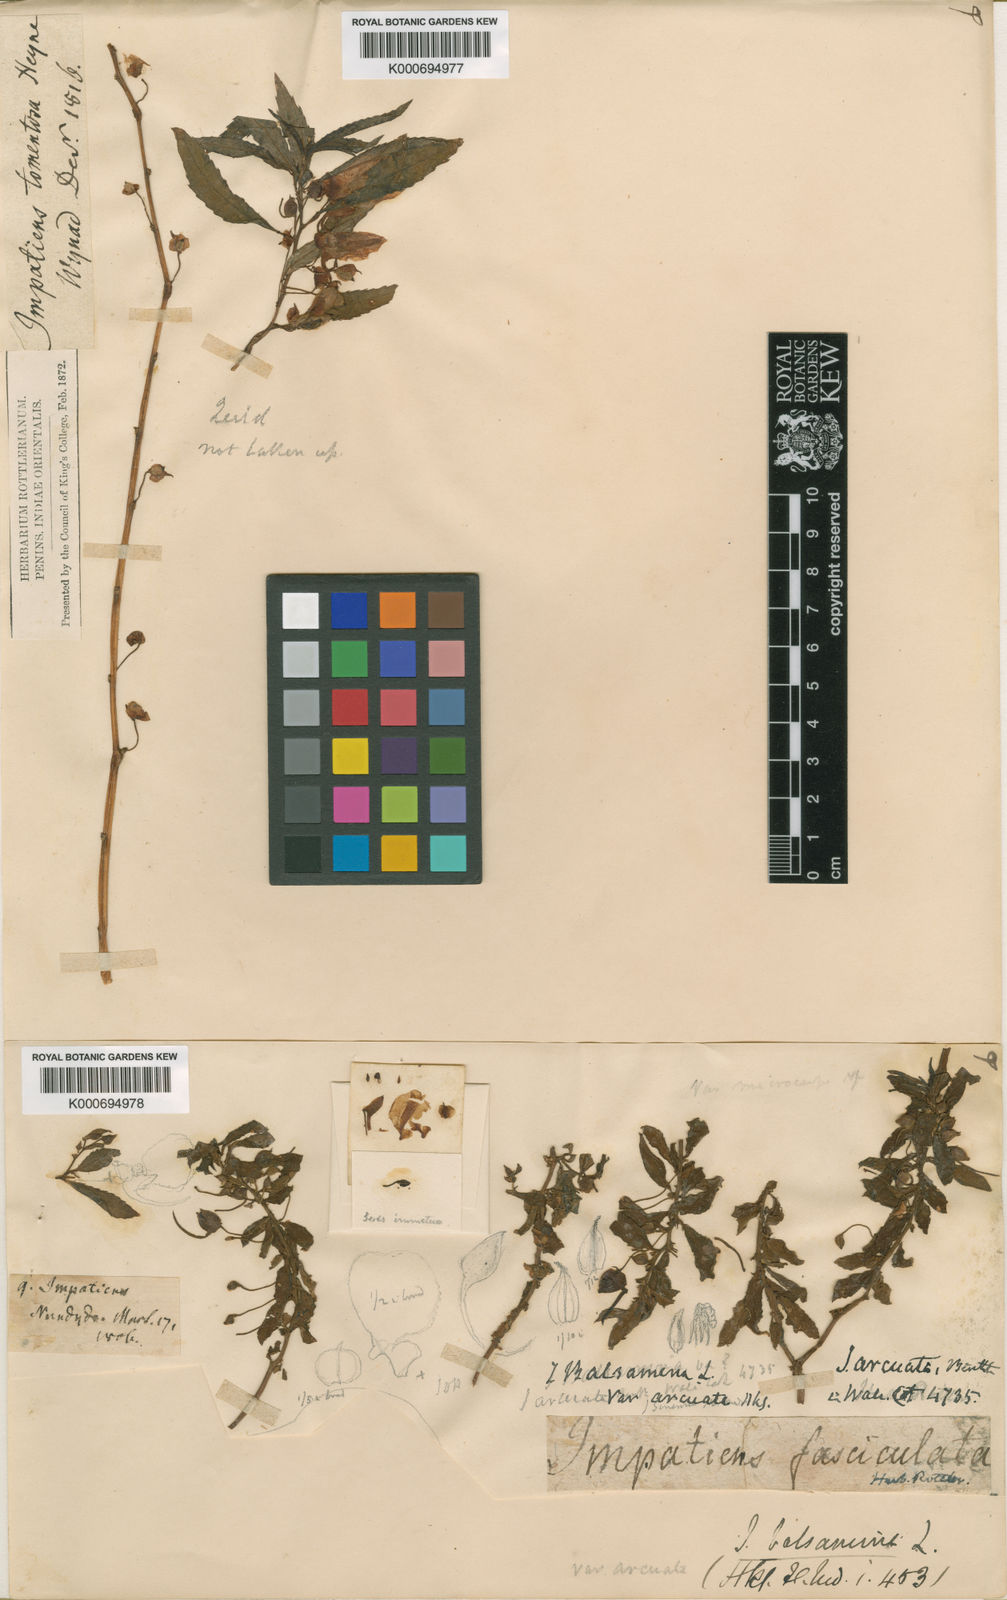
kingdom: Plantae
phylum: Tracheophyta
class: Magnoliopsida
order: Ericales
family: Balsaminaceae
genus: Impatiens
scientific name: Impatiens balsamina
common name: Balsam
